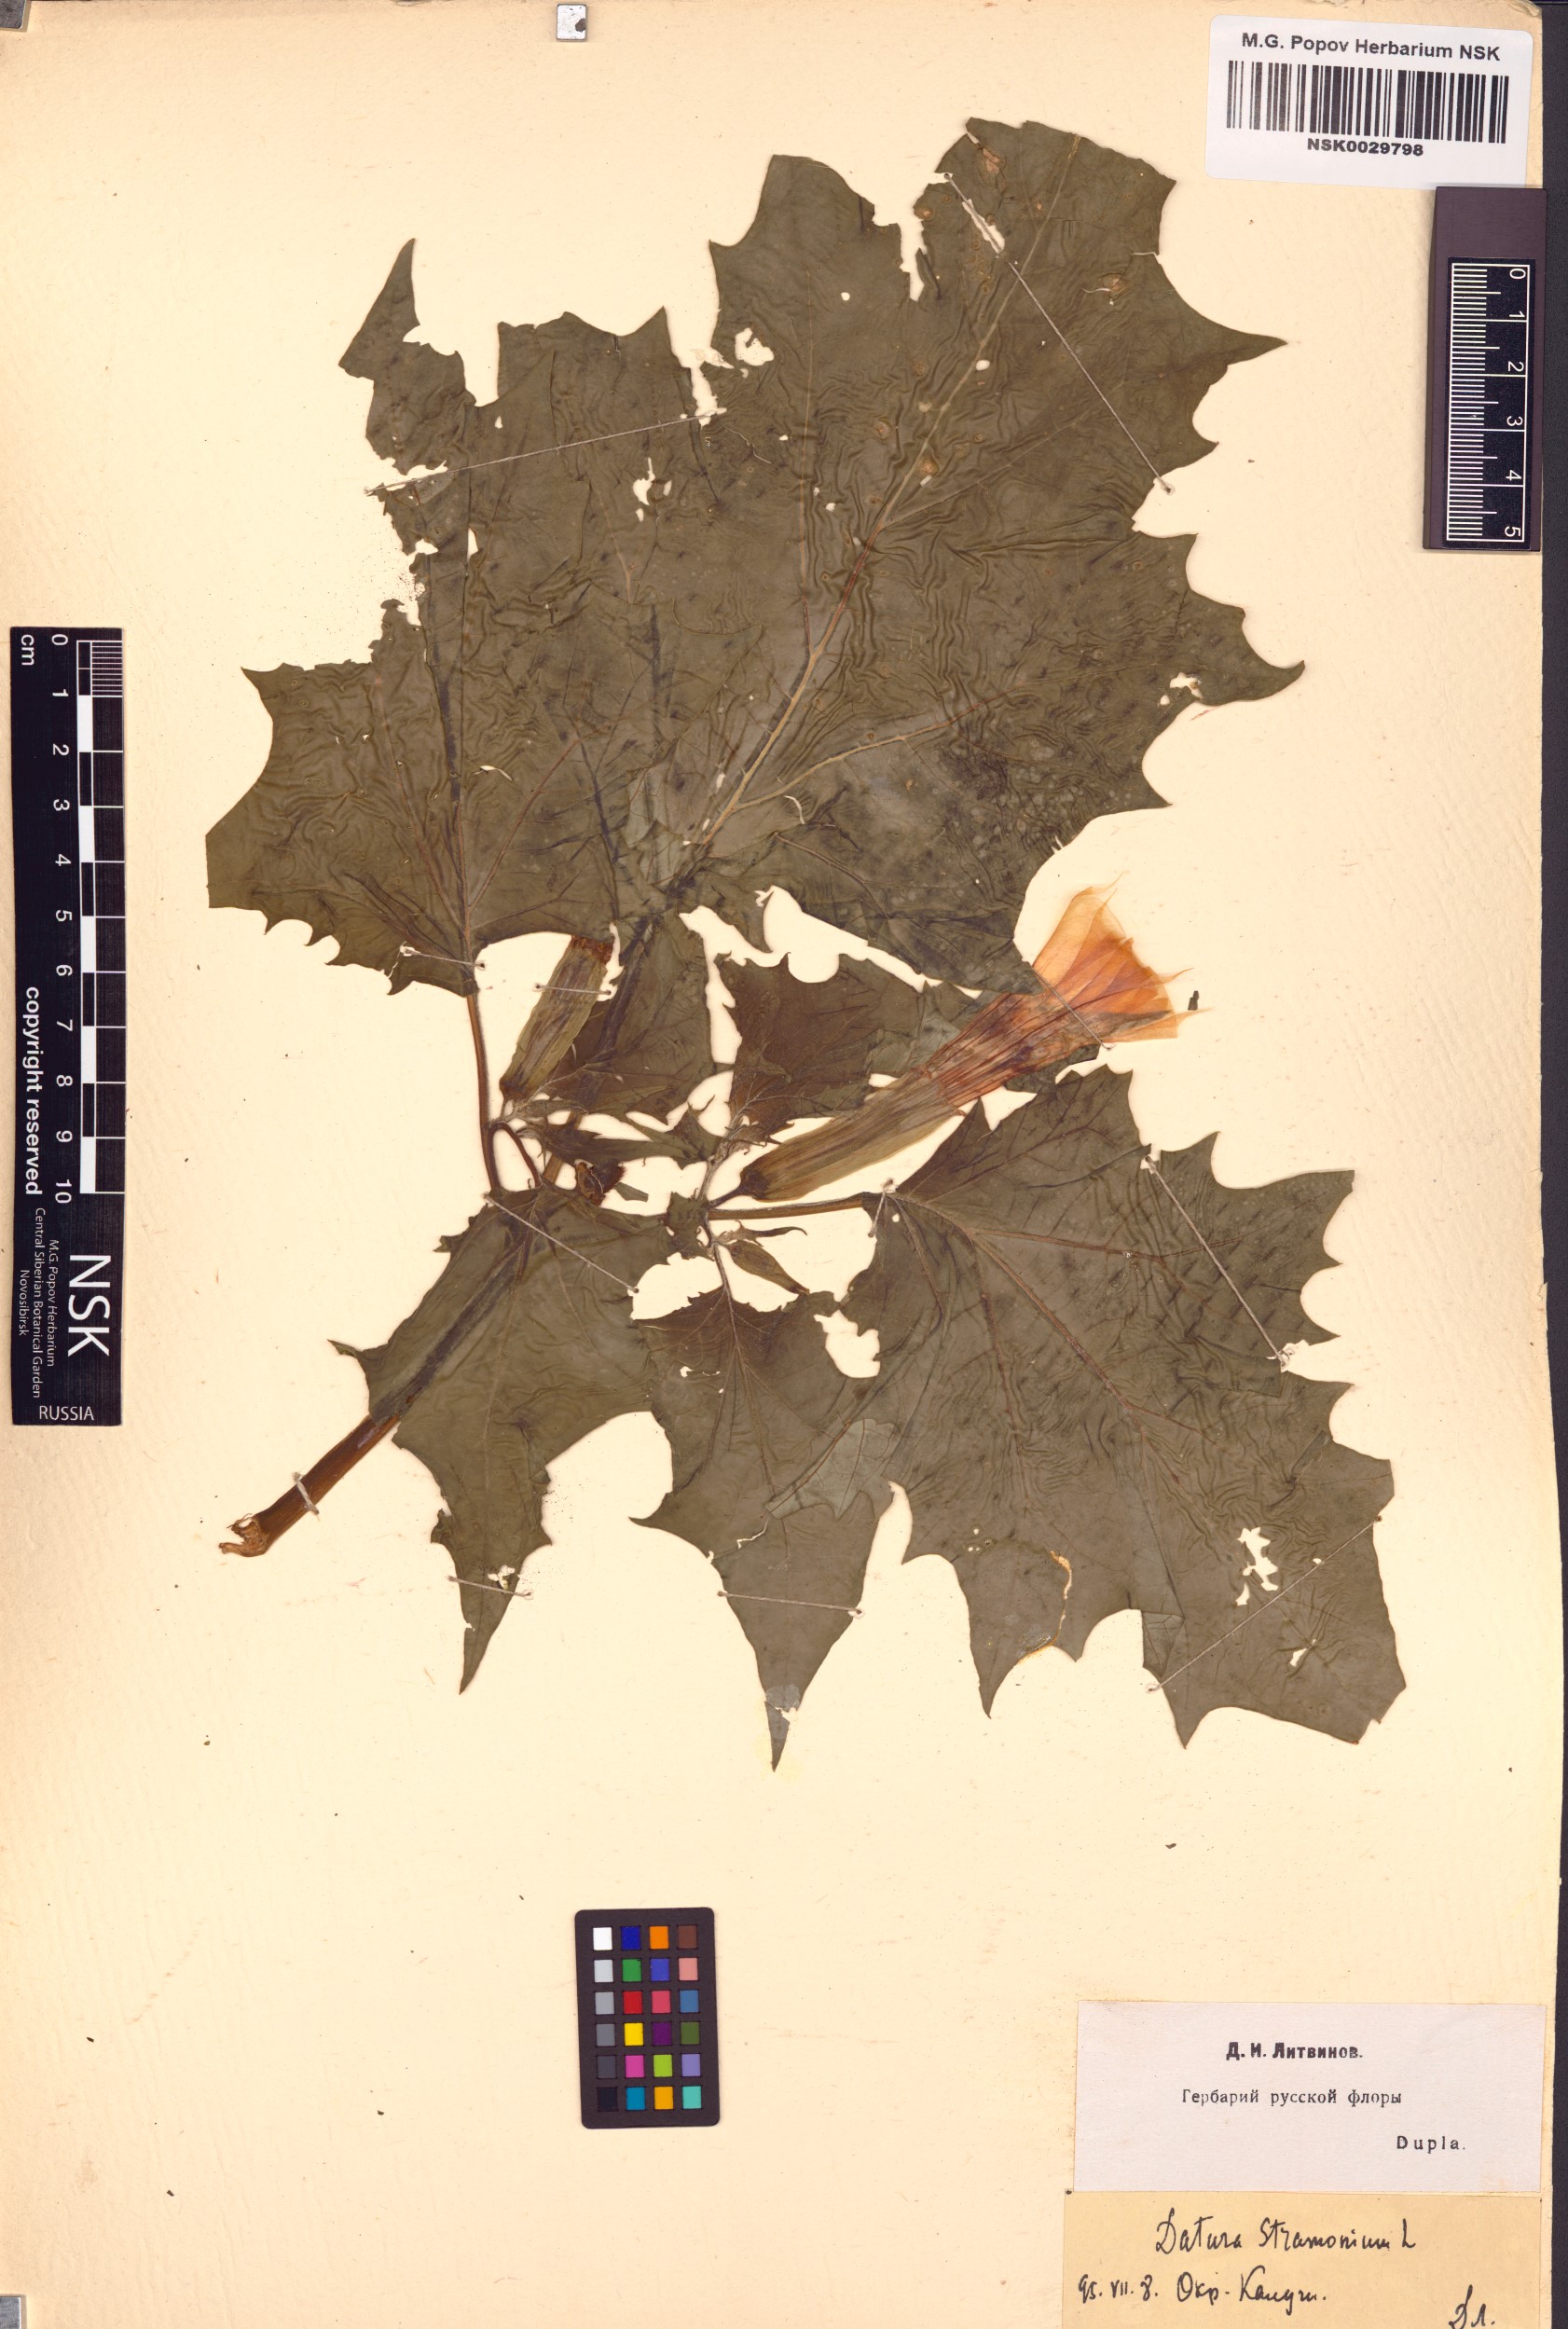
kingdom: Plantae
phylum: Tracheophyta
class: Magnoliopsida
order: Solanales
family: Solanaceae
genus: Datura
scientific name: Datura stramonium
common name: Thorn-apple
